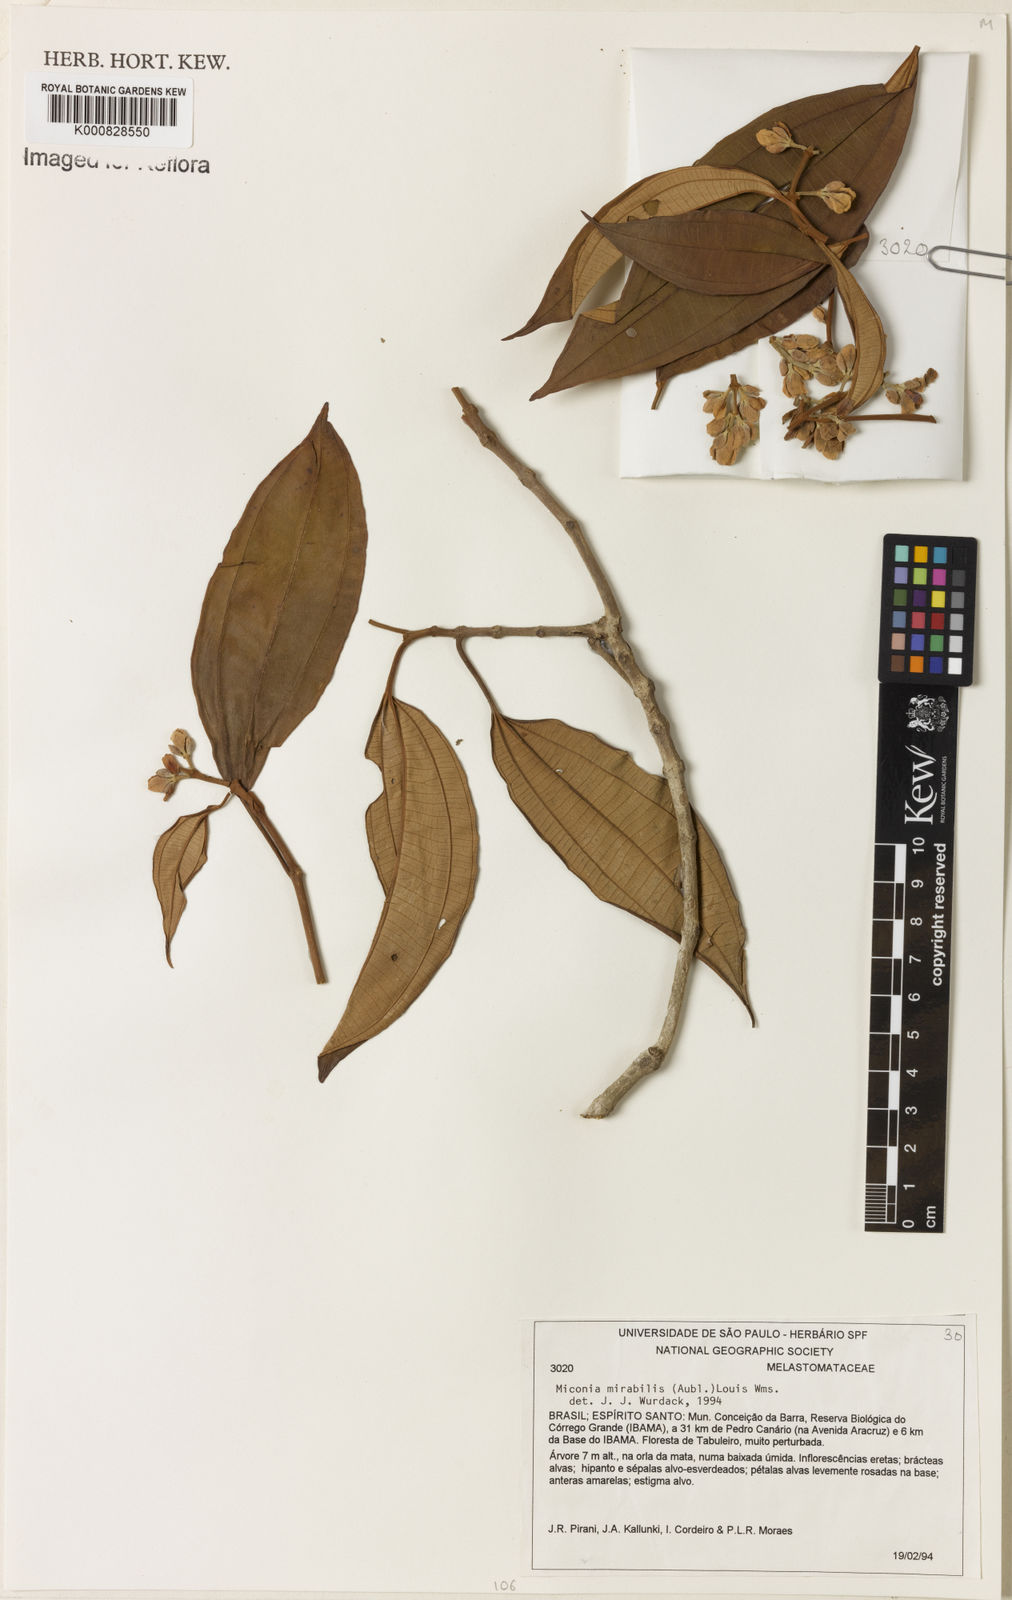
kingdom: Plantae
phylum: Tracheophyta
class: Magnoliopsida
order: Myrtales
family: Melastomataceae
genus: Miconia
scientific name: Miconia mirabilis
